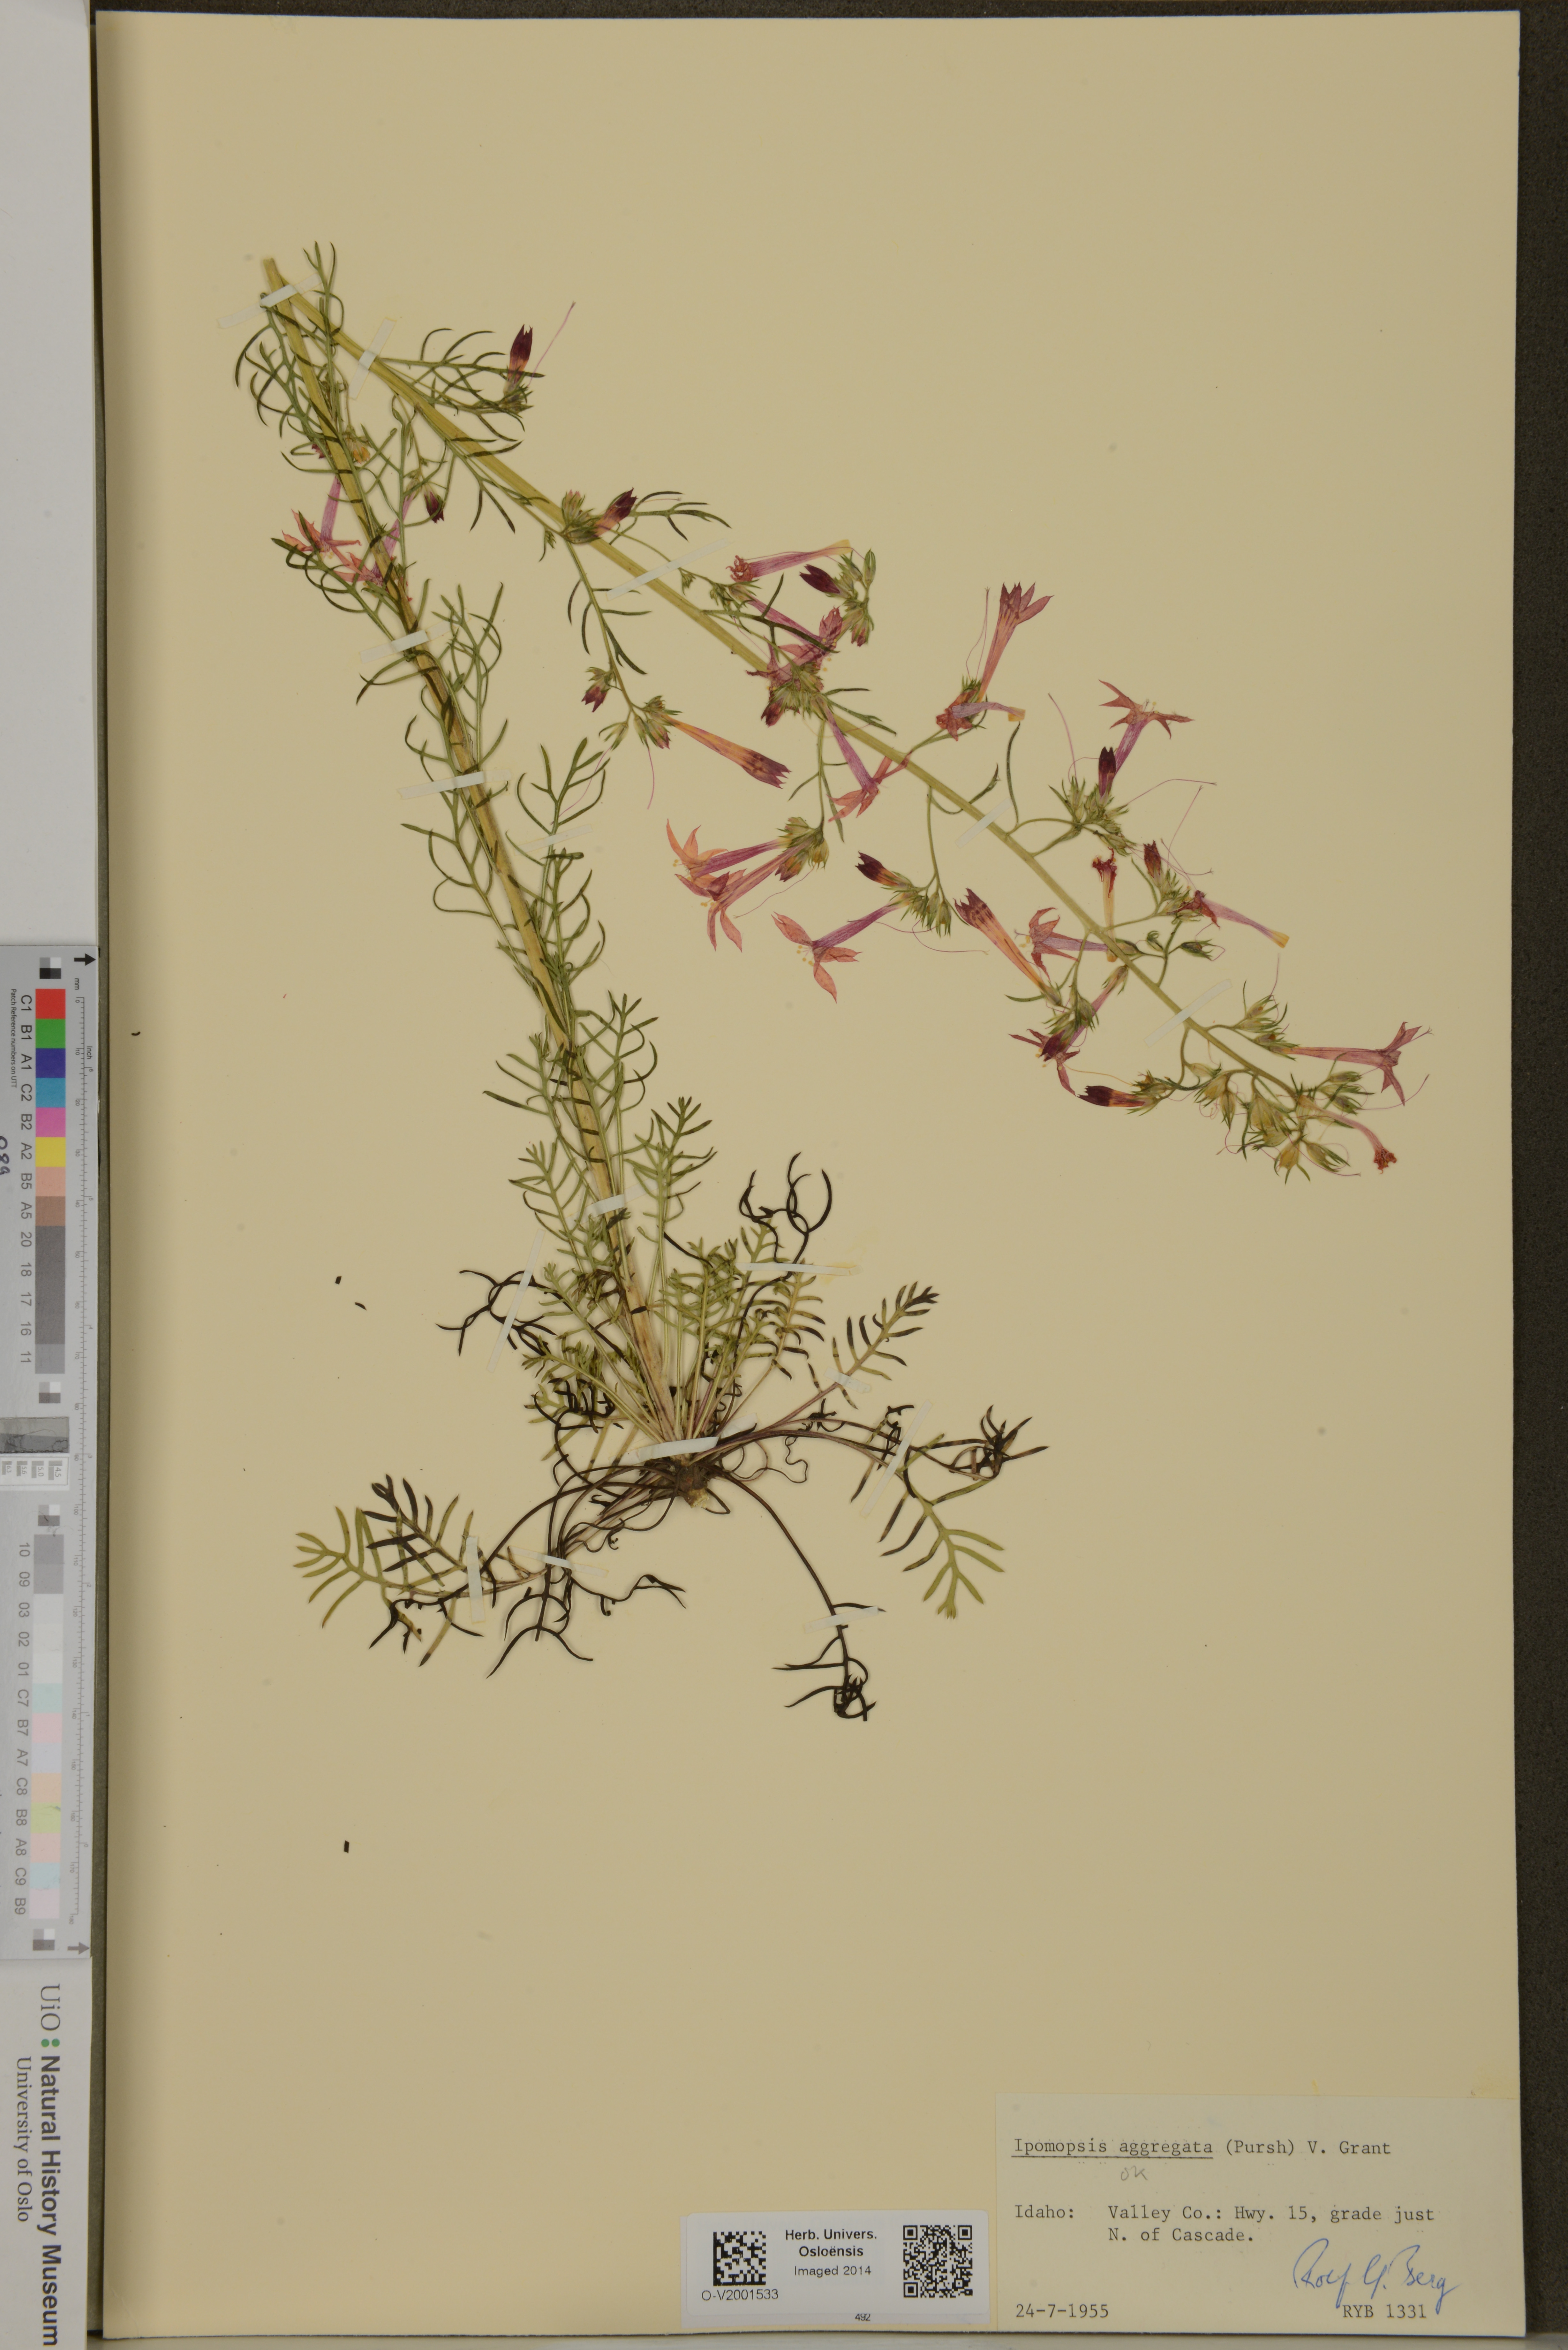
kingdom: Plantae
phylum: Tracheophyta
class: Magnoliopsida
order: Ericales
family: Polemoniaceae
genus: Ipomopsis
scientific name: Ipomopsis aggregata
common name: Scarlet gilia
